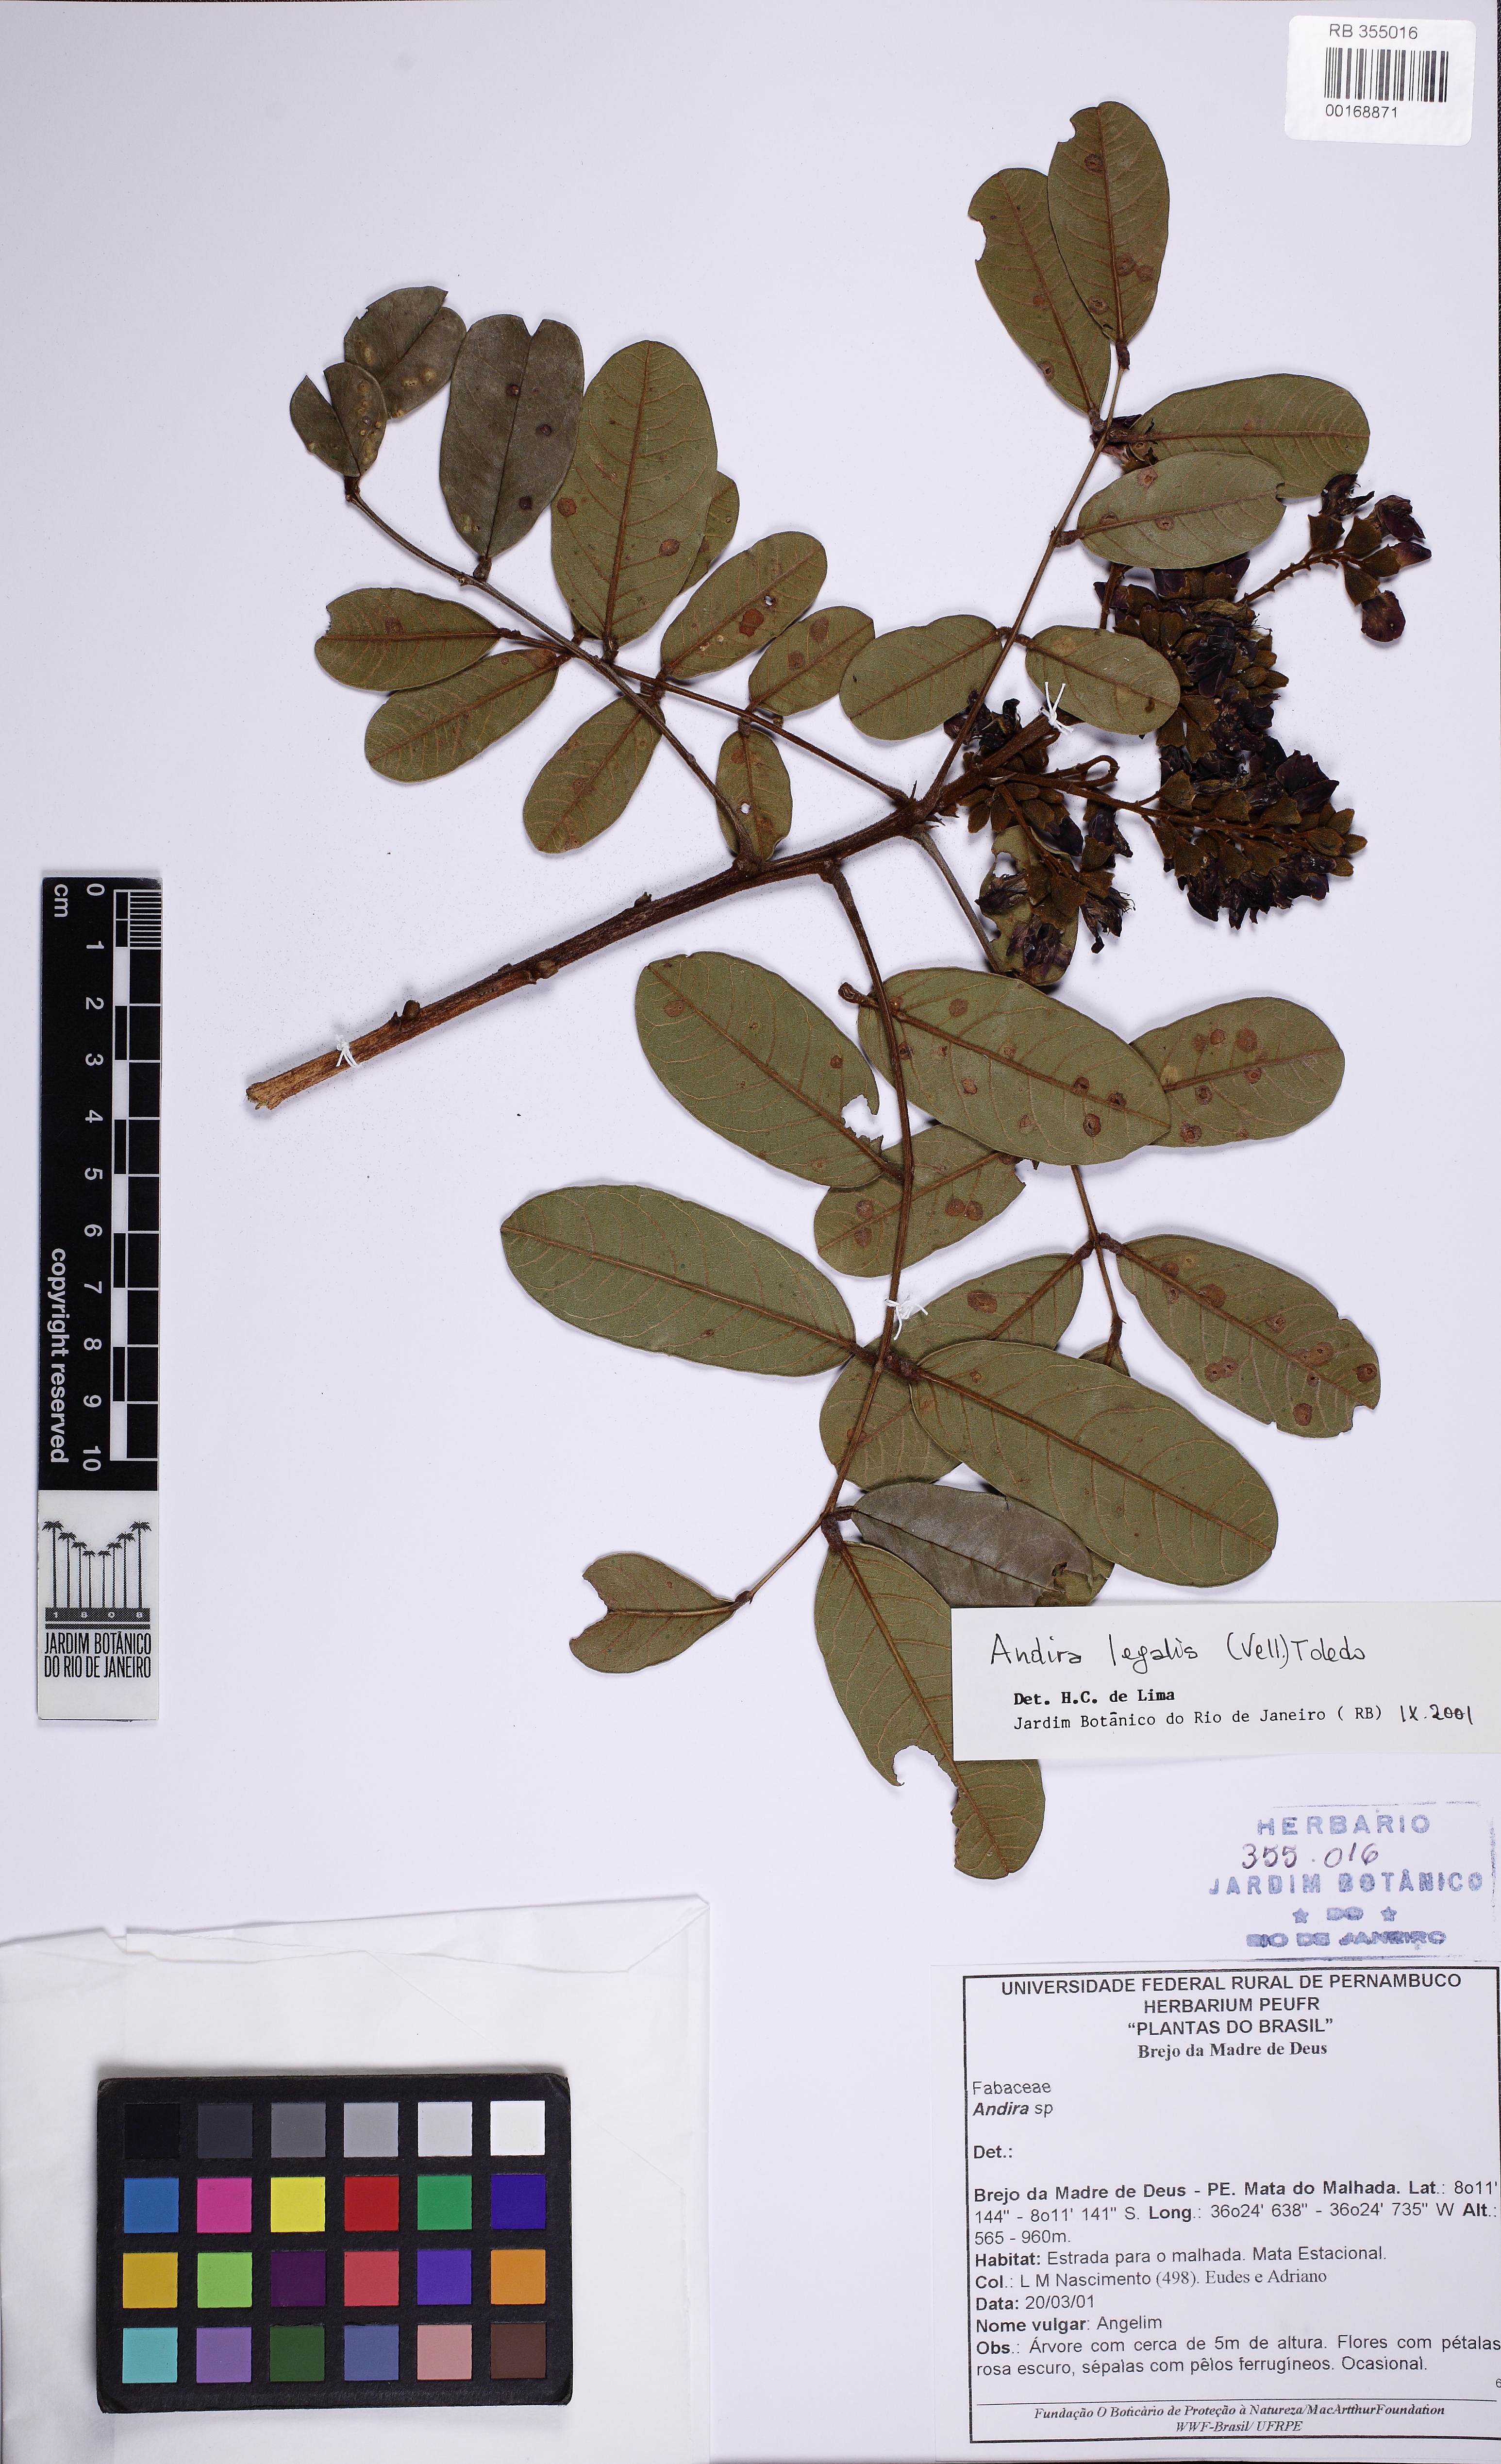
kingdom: Plantae
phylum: Tracheophyta
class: Magnoliopsida
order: Fabales
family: Fabaceae
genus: Andira
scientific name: Andira legalis
